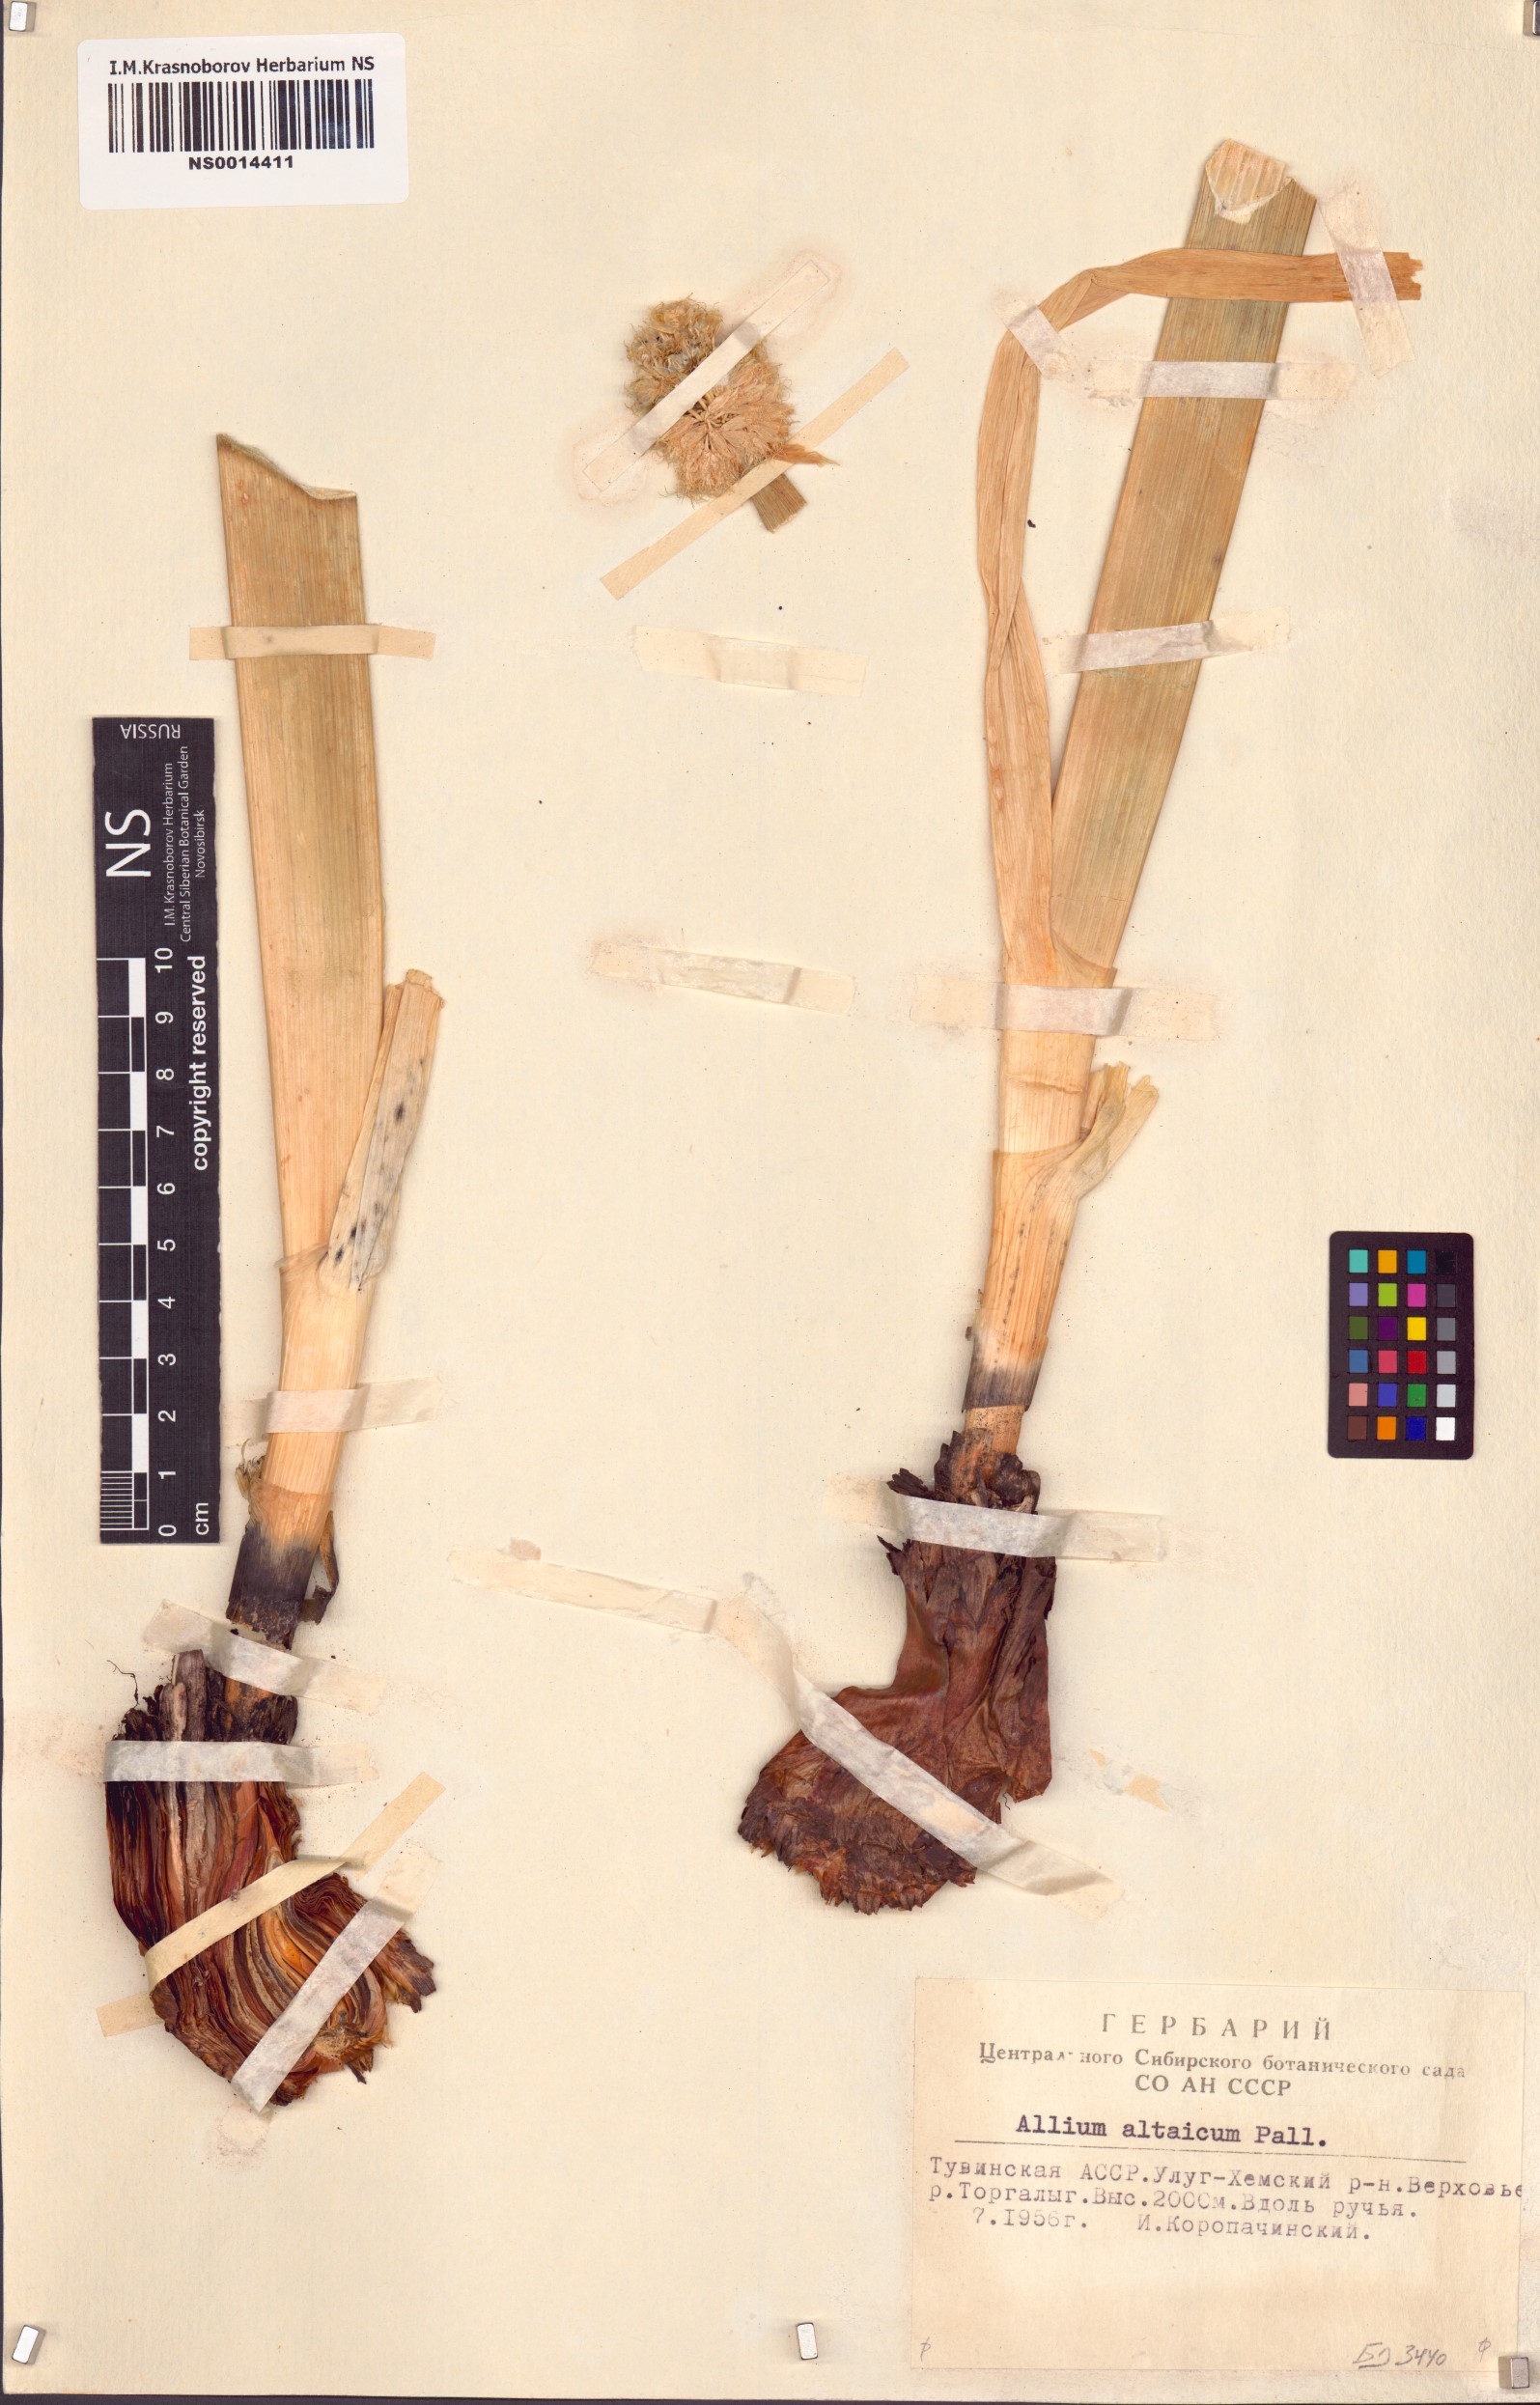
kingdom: Plantae
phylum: Tracheophyta
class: Liliopsida
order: Asparagales
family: Amaryllidaceae
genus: Allium
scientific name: Allium altaicum
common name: Altai onion
